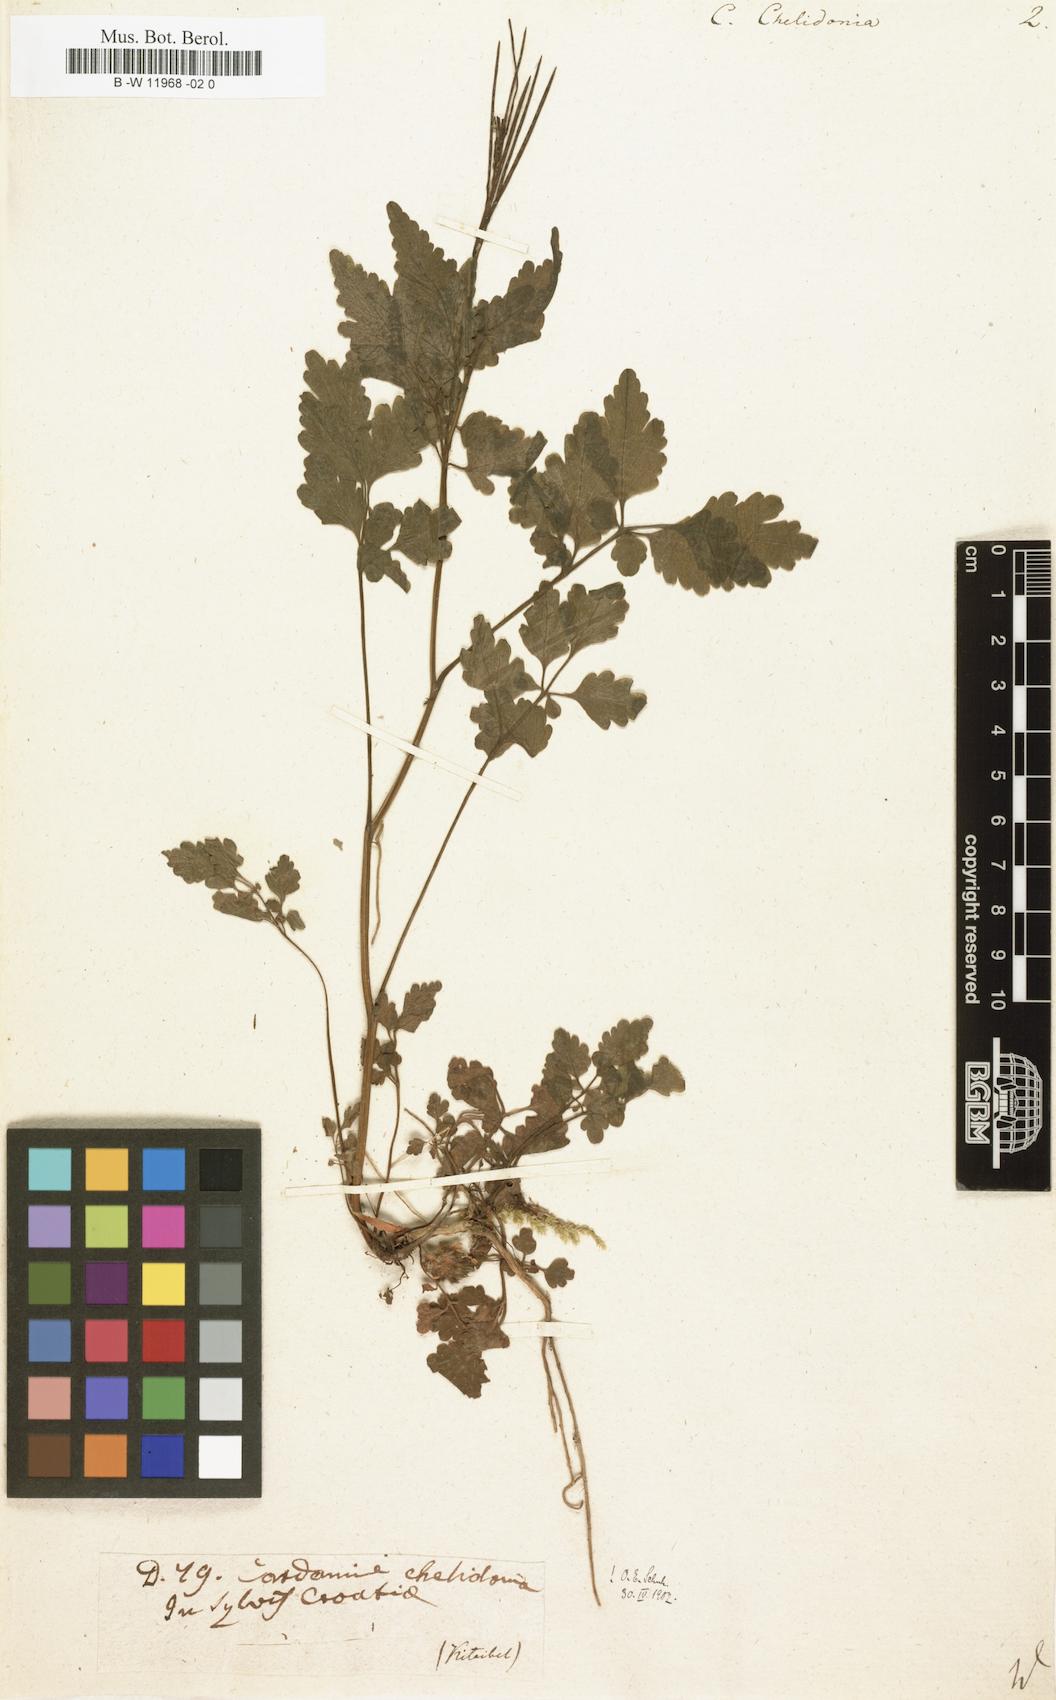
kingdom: Plantae
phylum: Tracheophyta
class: Magnoliopsida
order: Brassicales
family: Brassicaceae
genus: Cardamine
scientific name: Cardamine chelidonia
